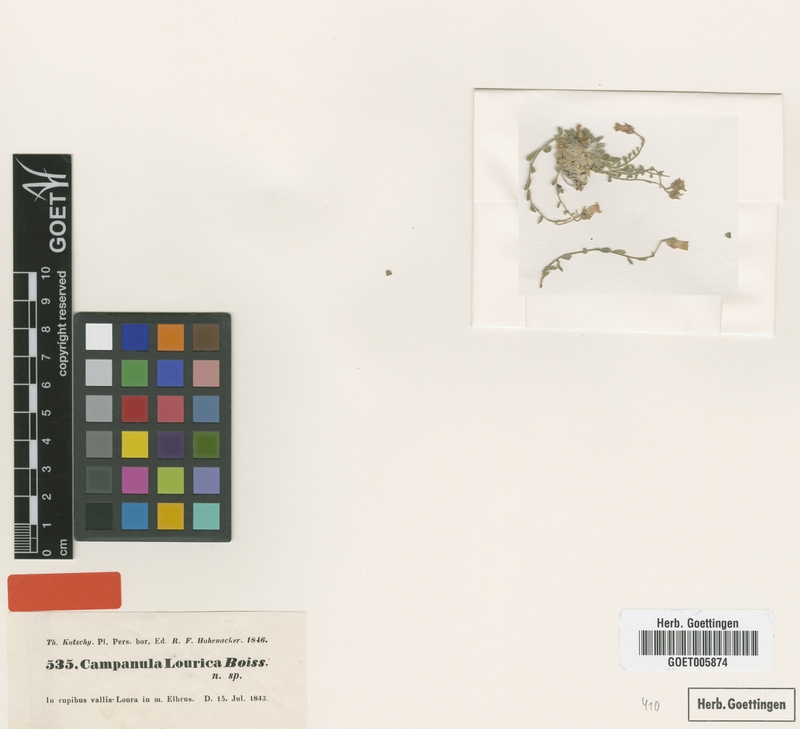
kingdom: Plantae
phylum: Tracheophyta
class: Magnoliopsida
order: Asterales
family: Campanulaceae
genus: Campanula
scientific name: Campanula lourica
